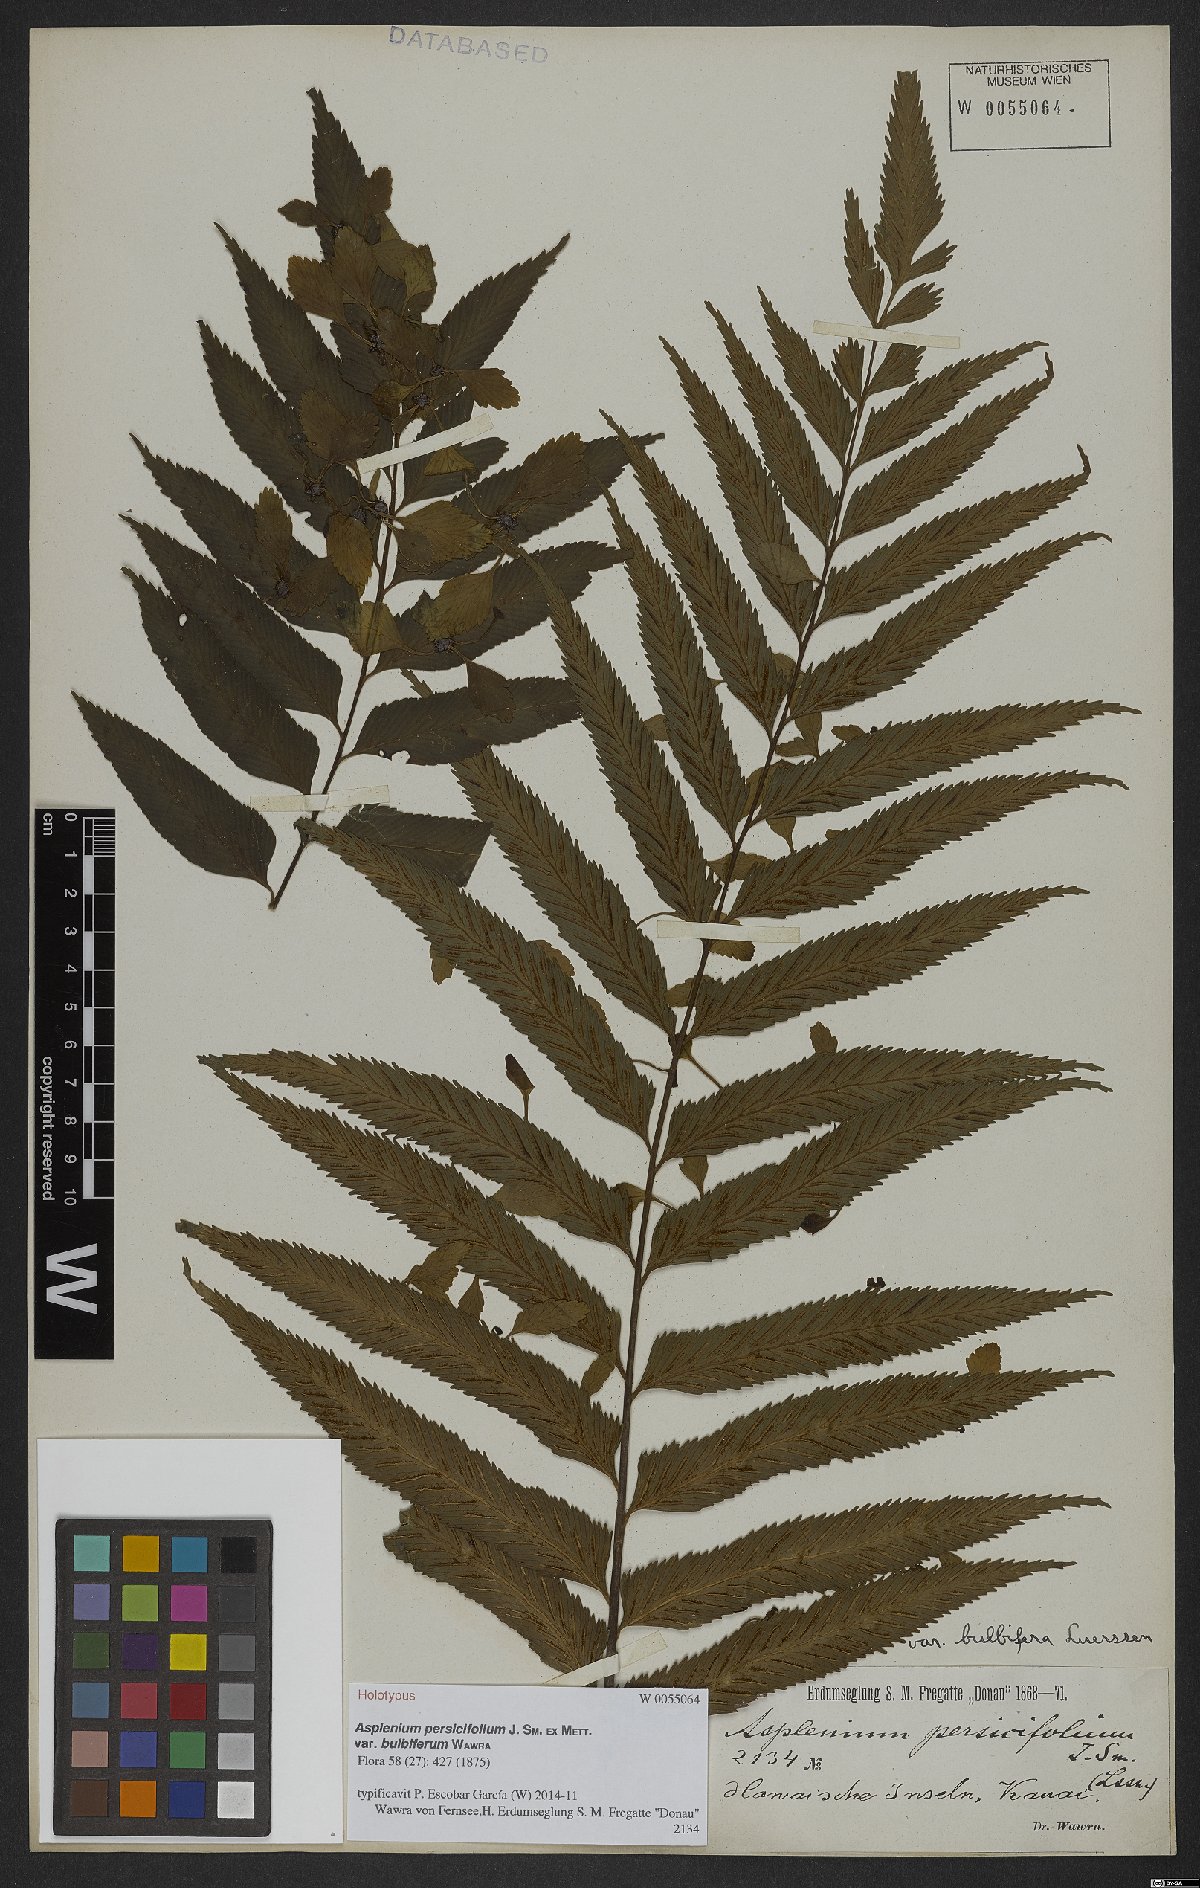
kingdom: Plantae
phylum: Tracheophyta
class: Polypodiopsida
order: Polypodiales
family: Aspleniaceae
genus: Asplenium
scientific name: Asplenium persicifolium
